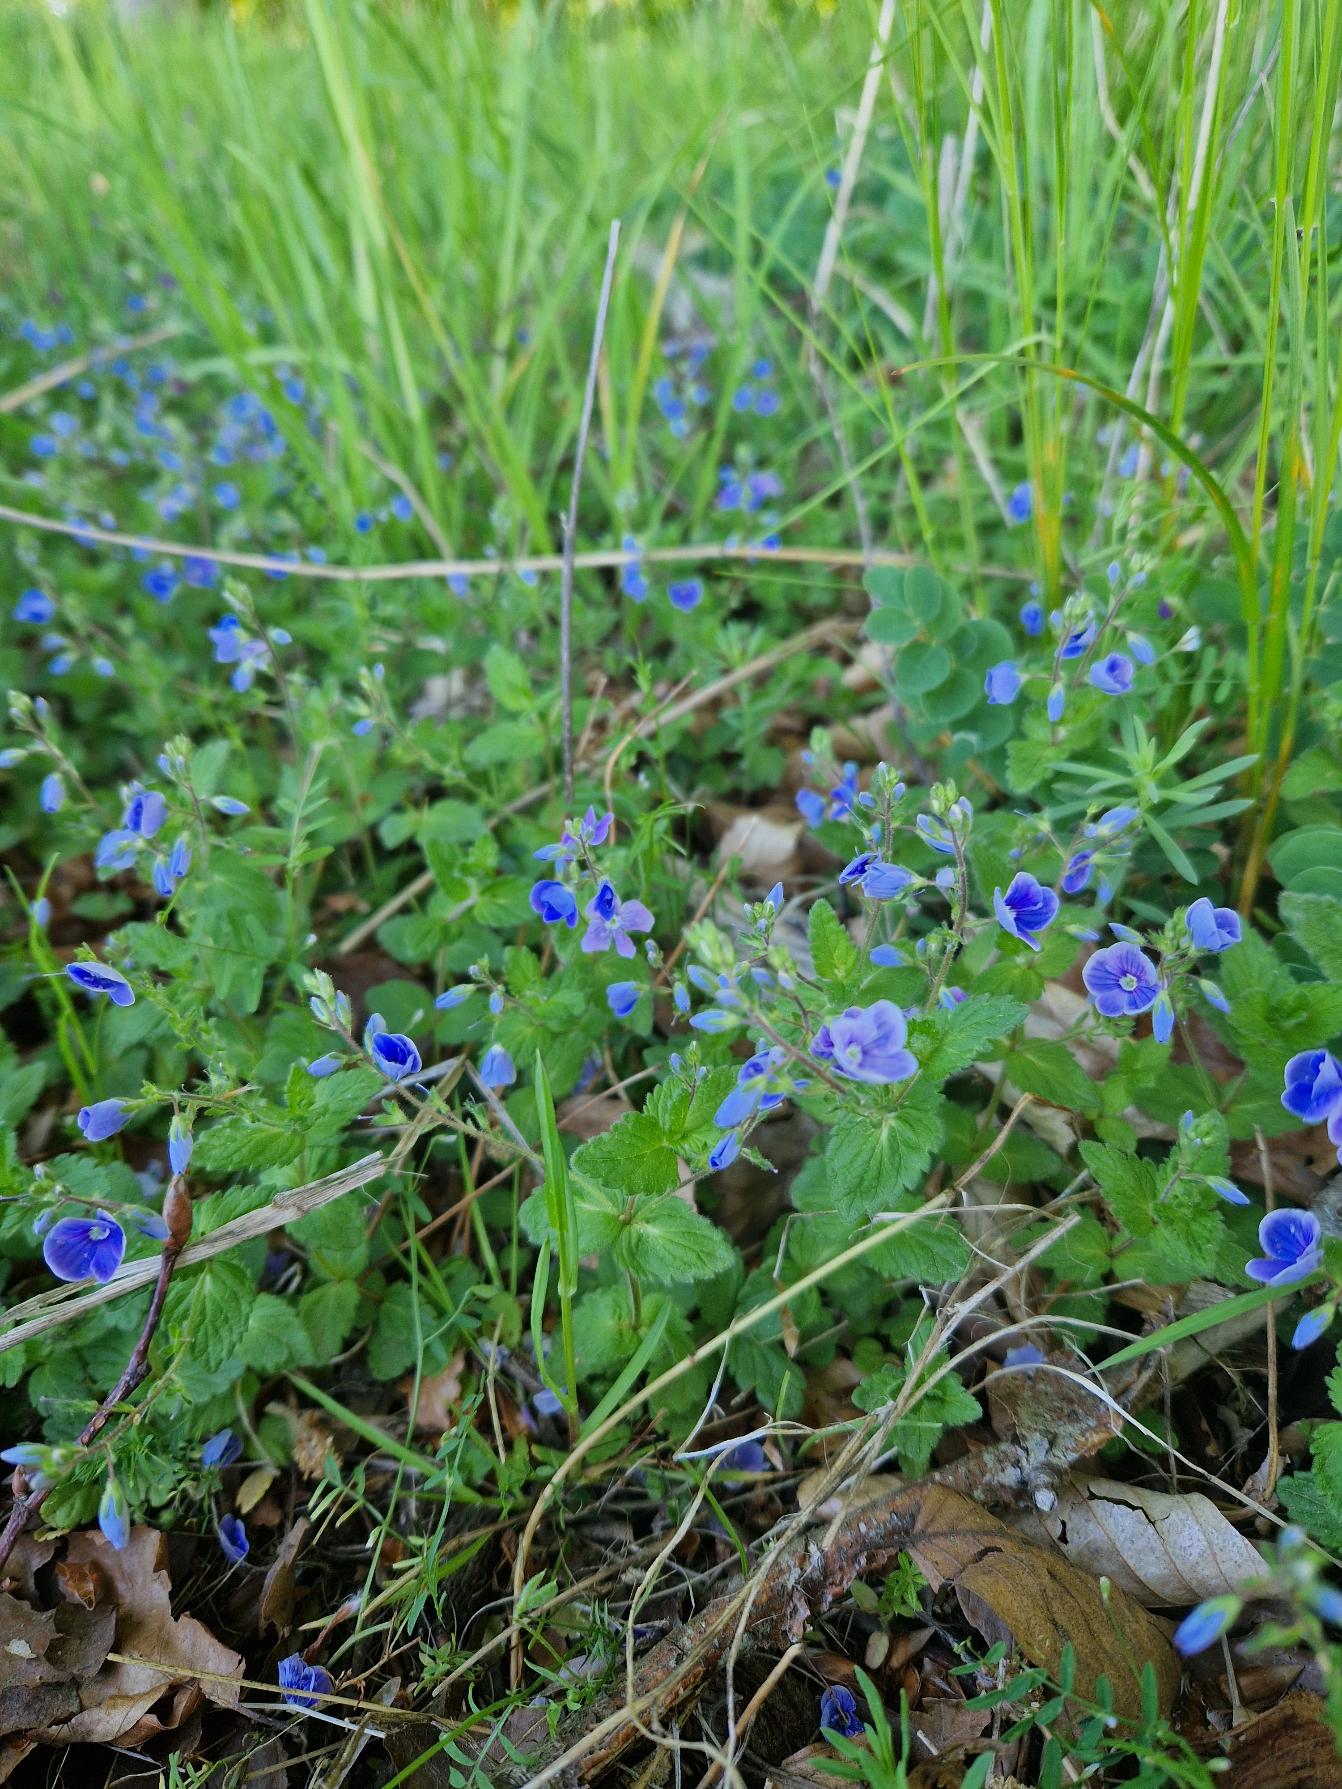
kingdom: Plantae
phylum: Tracheophyta
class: Magnoliopsida
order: Lamiales
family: Plantaginaceae
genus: Veronica
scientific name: Veronica chamaedrys
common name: Tveskægget ærenpris
